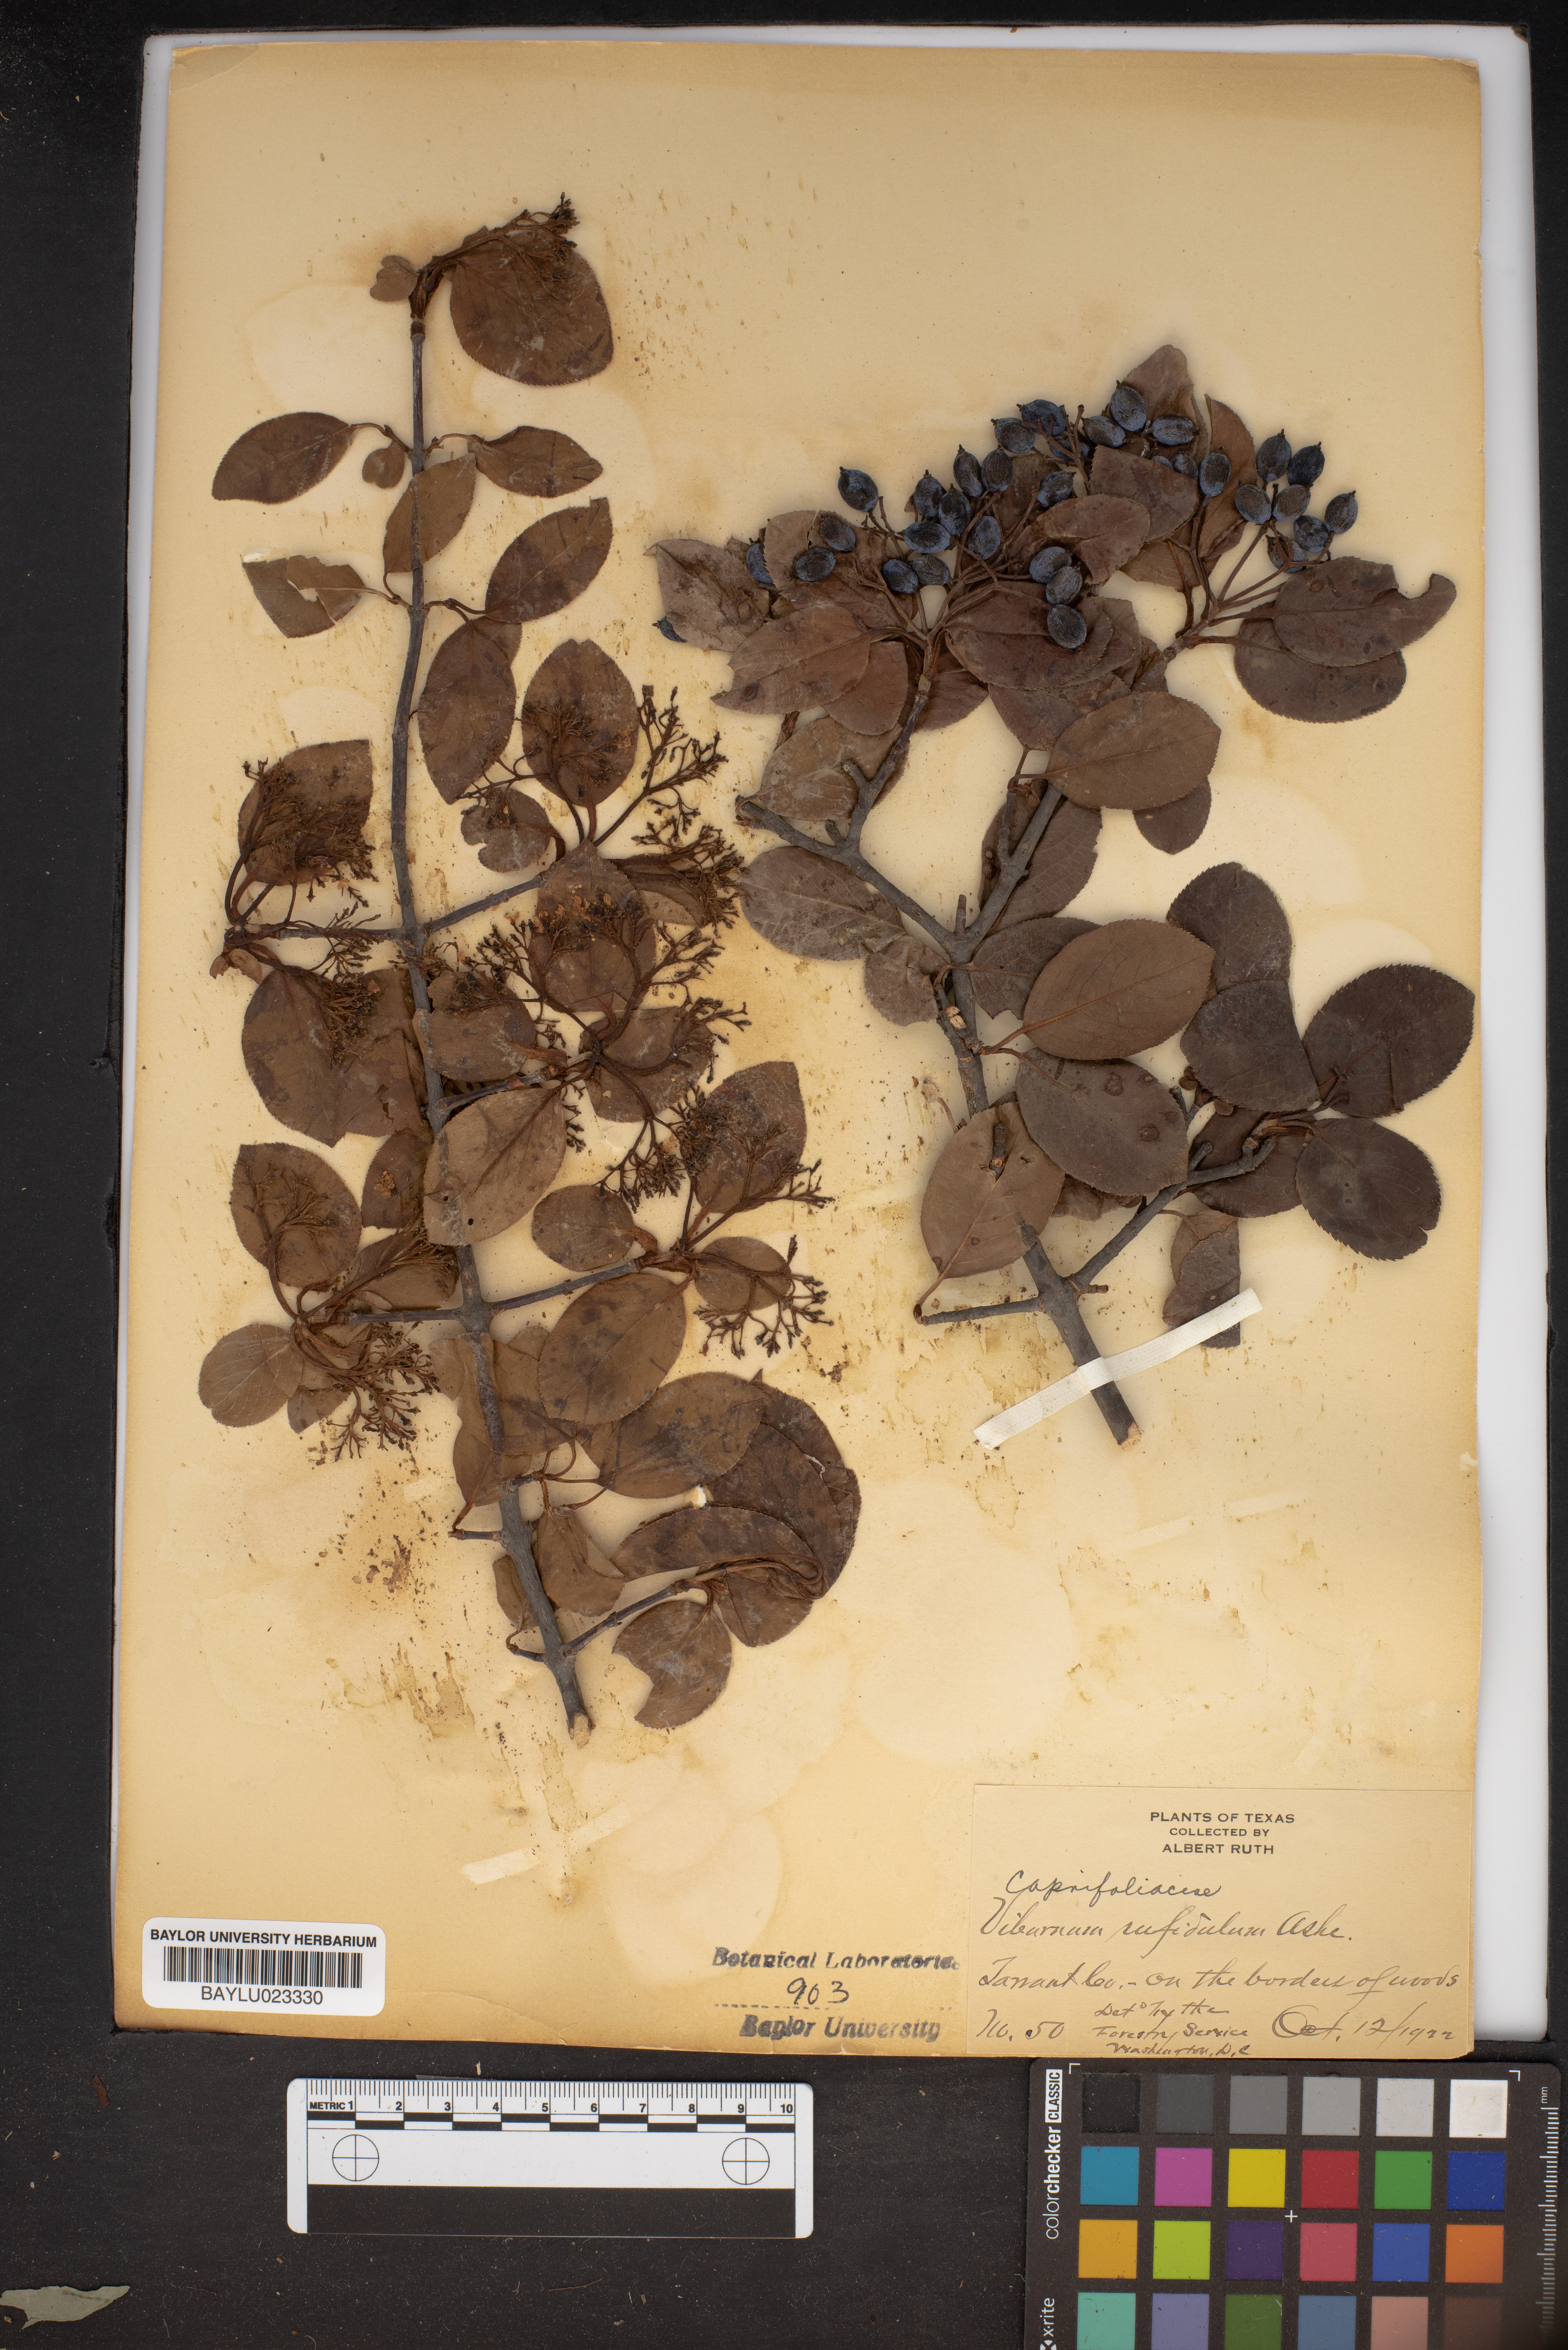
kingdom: Plantae
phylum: Tracheophyta
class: Magnoliopsida
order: Dipsacales
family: Viburnaceae
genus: Viburnum
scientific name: Viburnum rufidulum
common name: Blue haw
